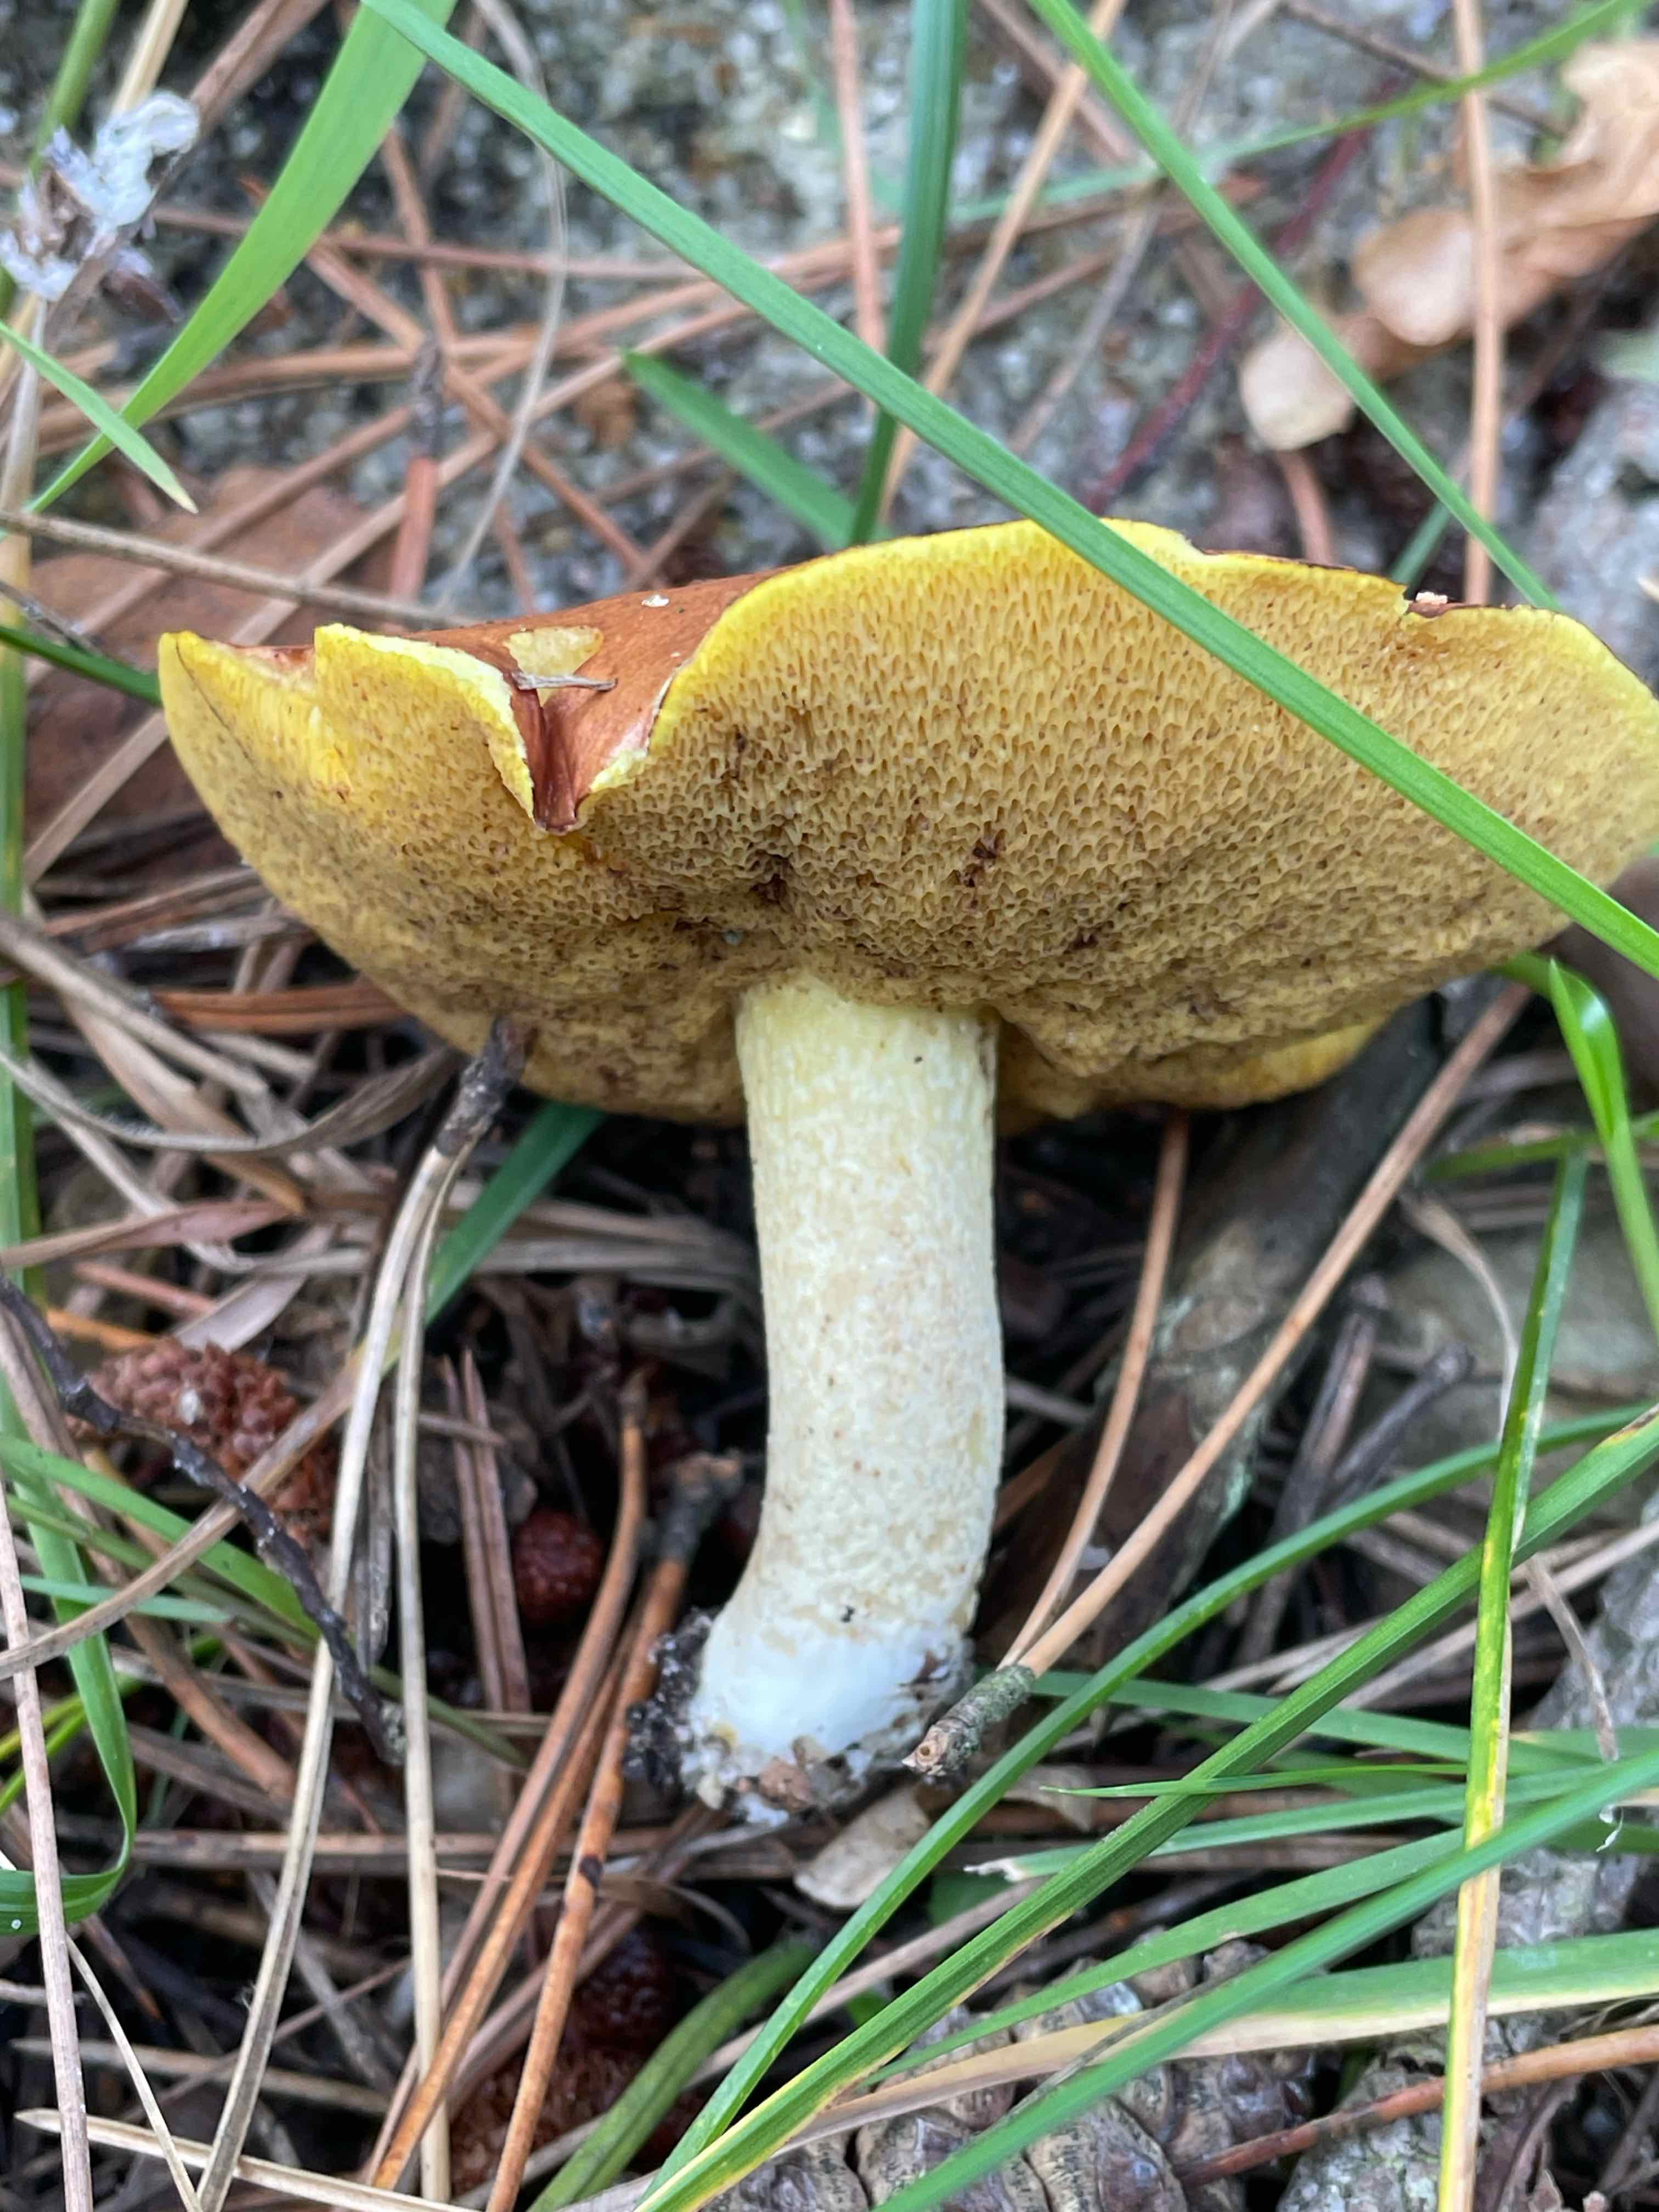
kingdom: Fungi
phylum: Basidiomycota
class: Agaricomycetes
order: Boletales
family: Suillaceae
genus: Suillus
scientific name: Suillus granulatus
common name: kornet slimrørhat
